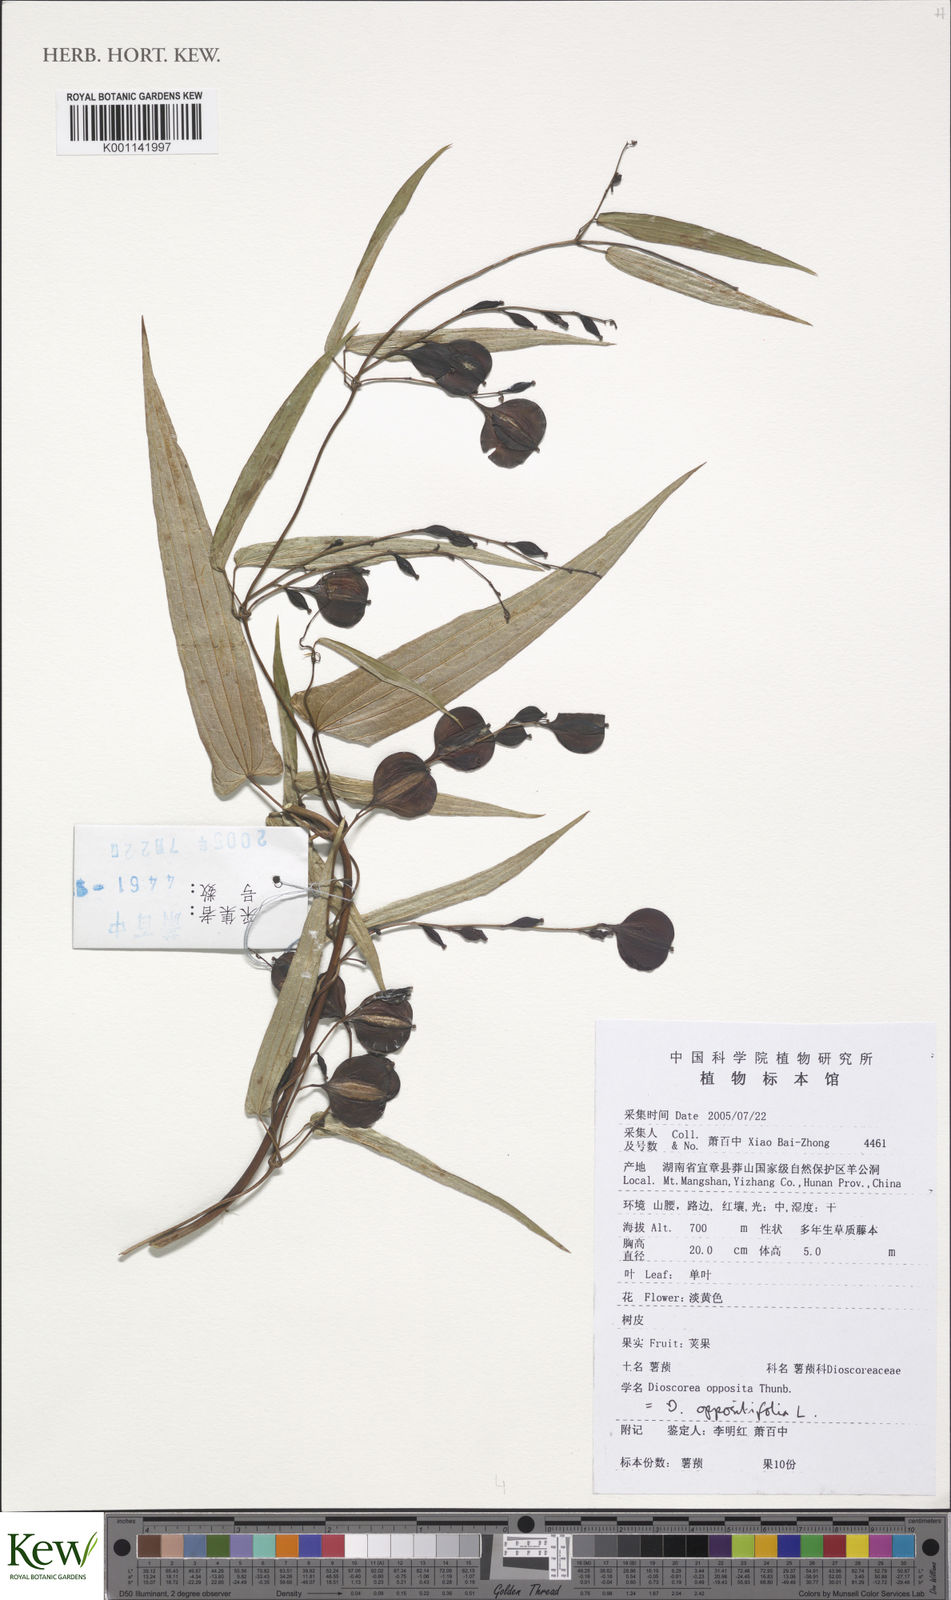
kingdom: Plantae
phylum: Tracheophyta
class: Liliopsida
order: Dioscoreales
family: Dioscoreaceae
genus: Dioscorea
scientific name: Dioscorea oppositifolia
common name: Chinese yam
